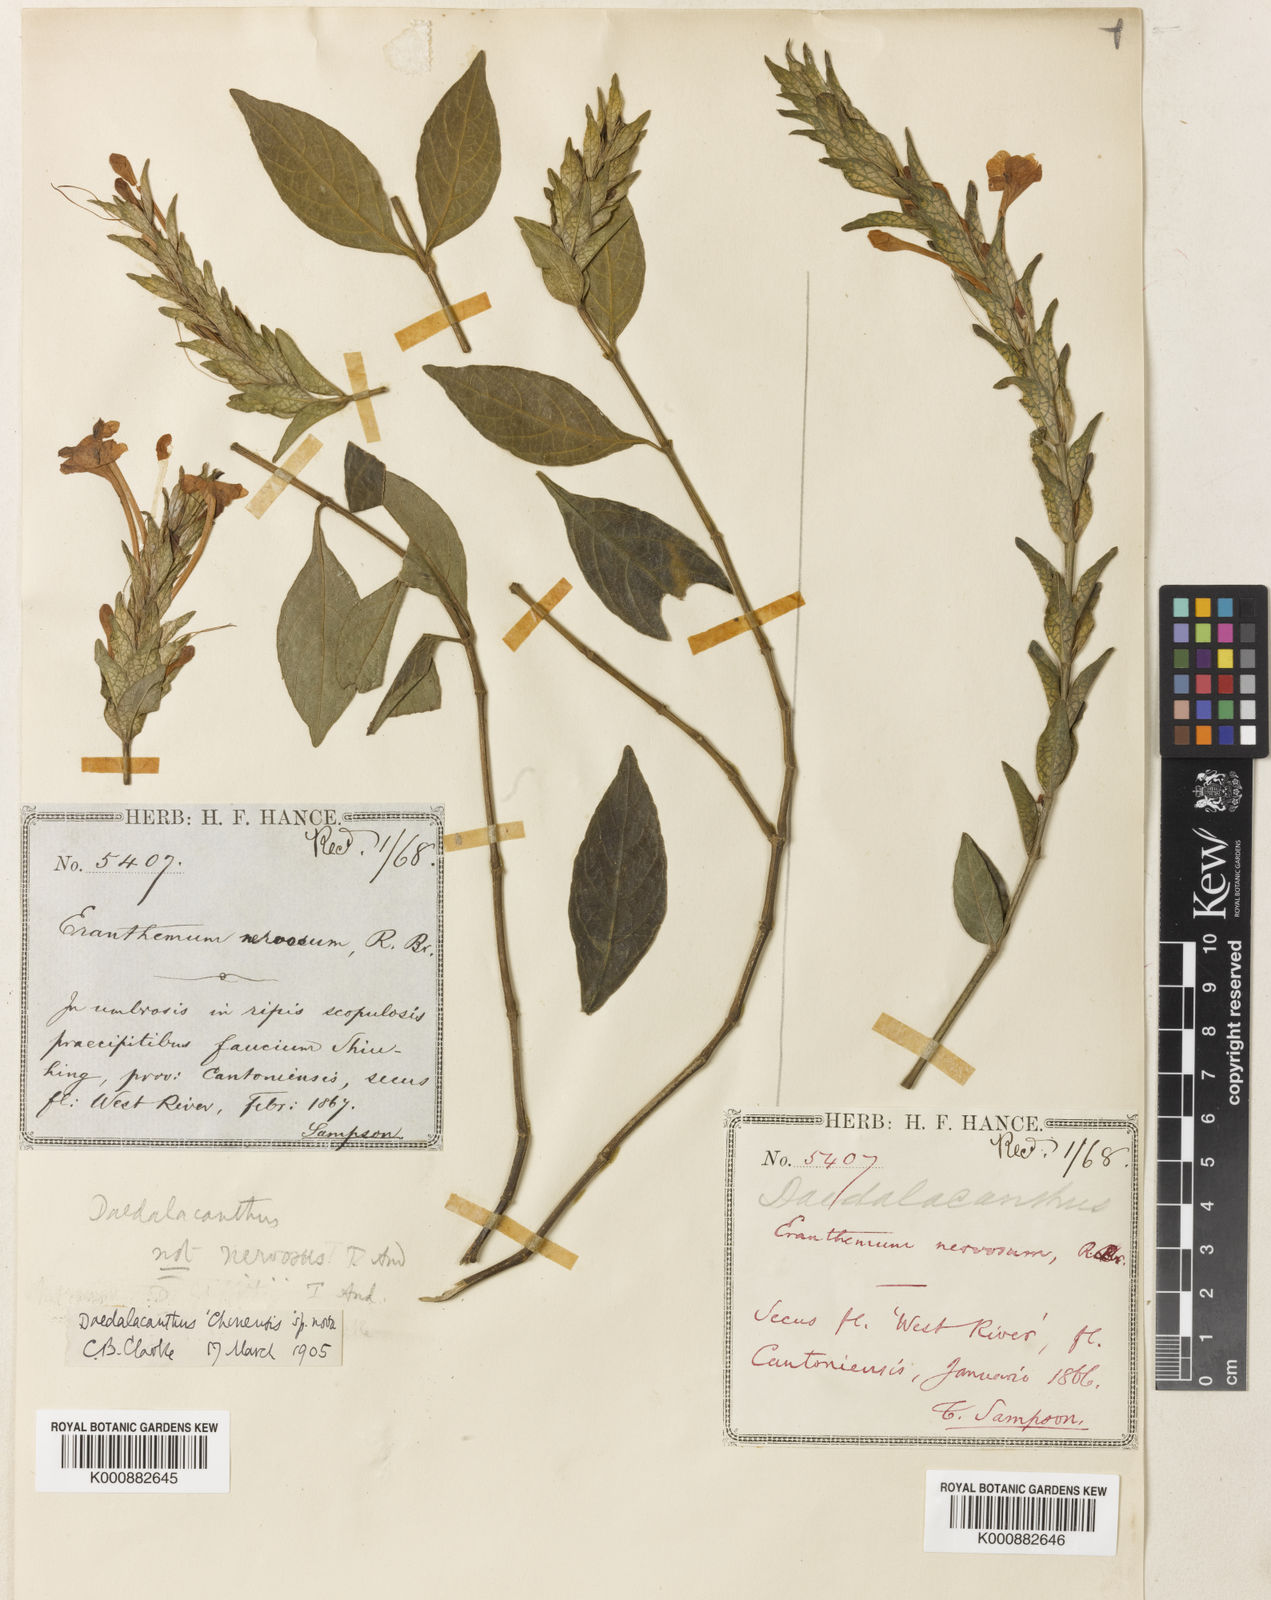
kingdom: Plantae
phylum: Tracheophyta
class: Magnoliopsida
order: Lamiales
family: Acanthaceae
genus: Eranthemum
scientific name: Eranthemum ciliatum
